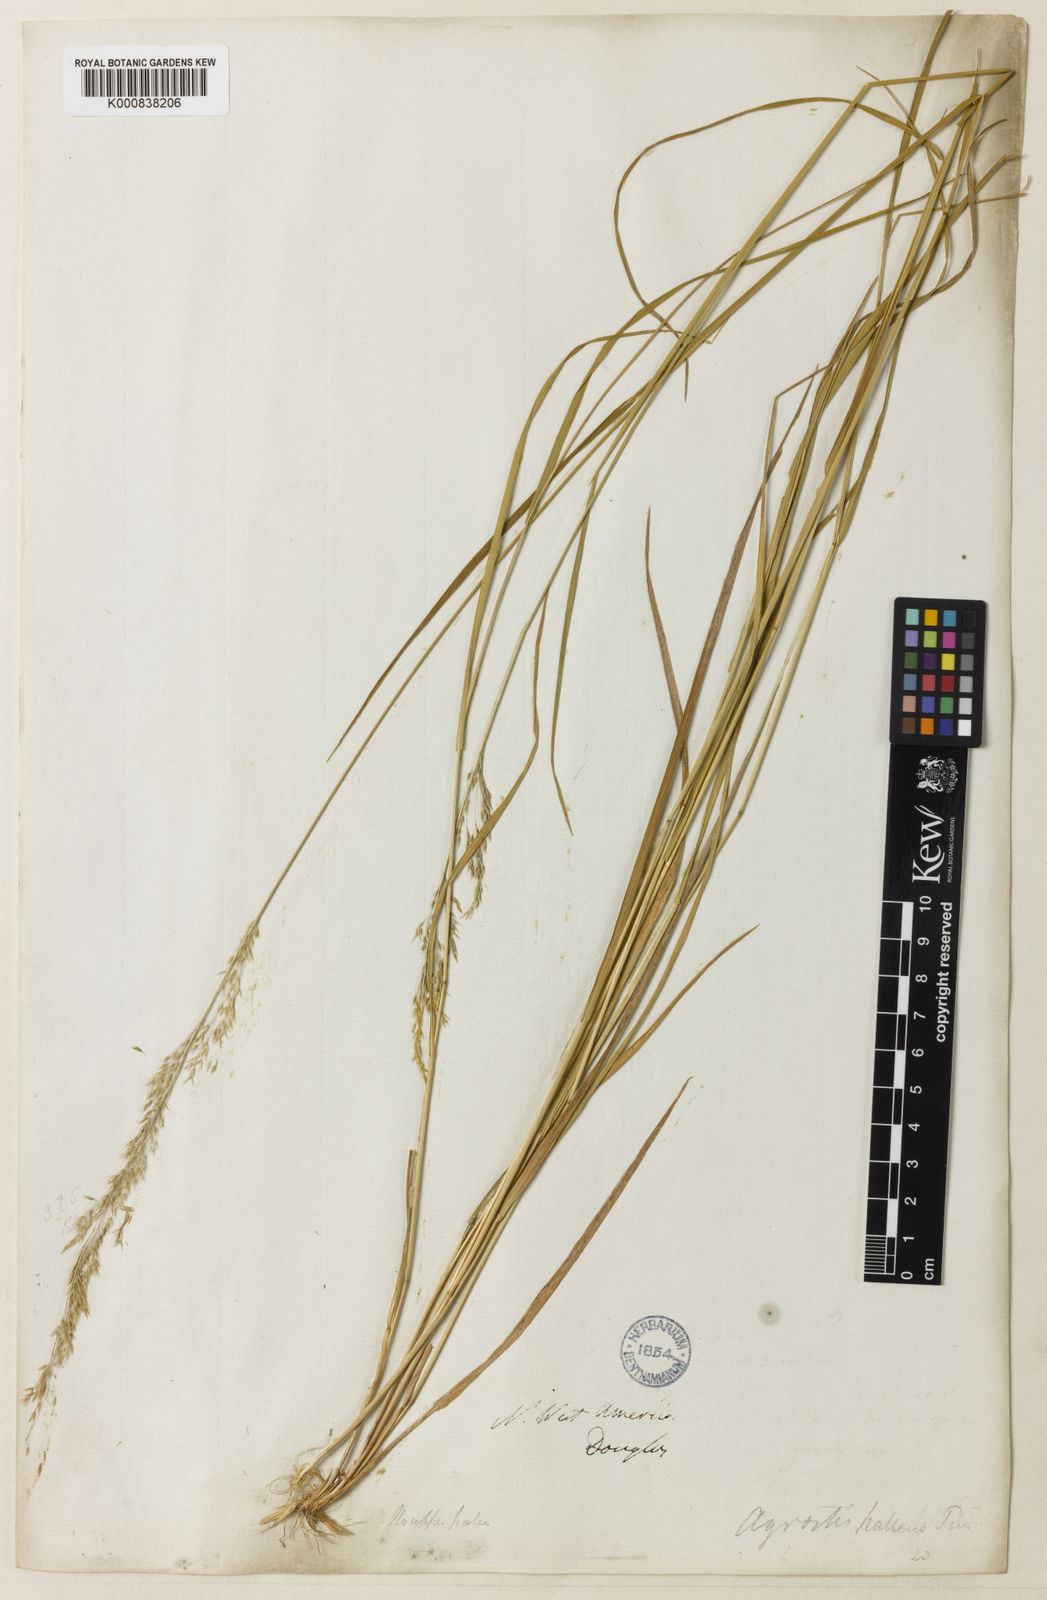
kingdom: Plantae
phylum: Tracheophyta
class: Liliopsida
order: Poales
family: Poaceae
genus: Agrostis
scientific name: Agrostis exarata
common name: Spike bent
